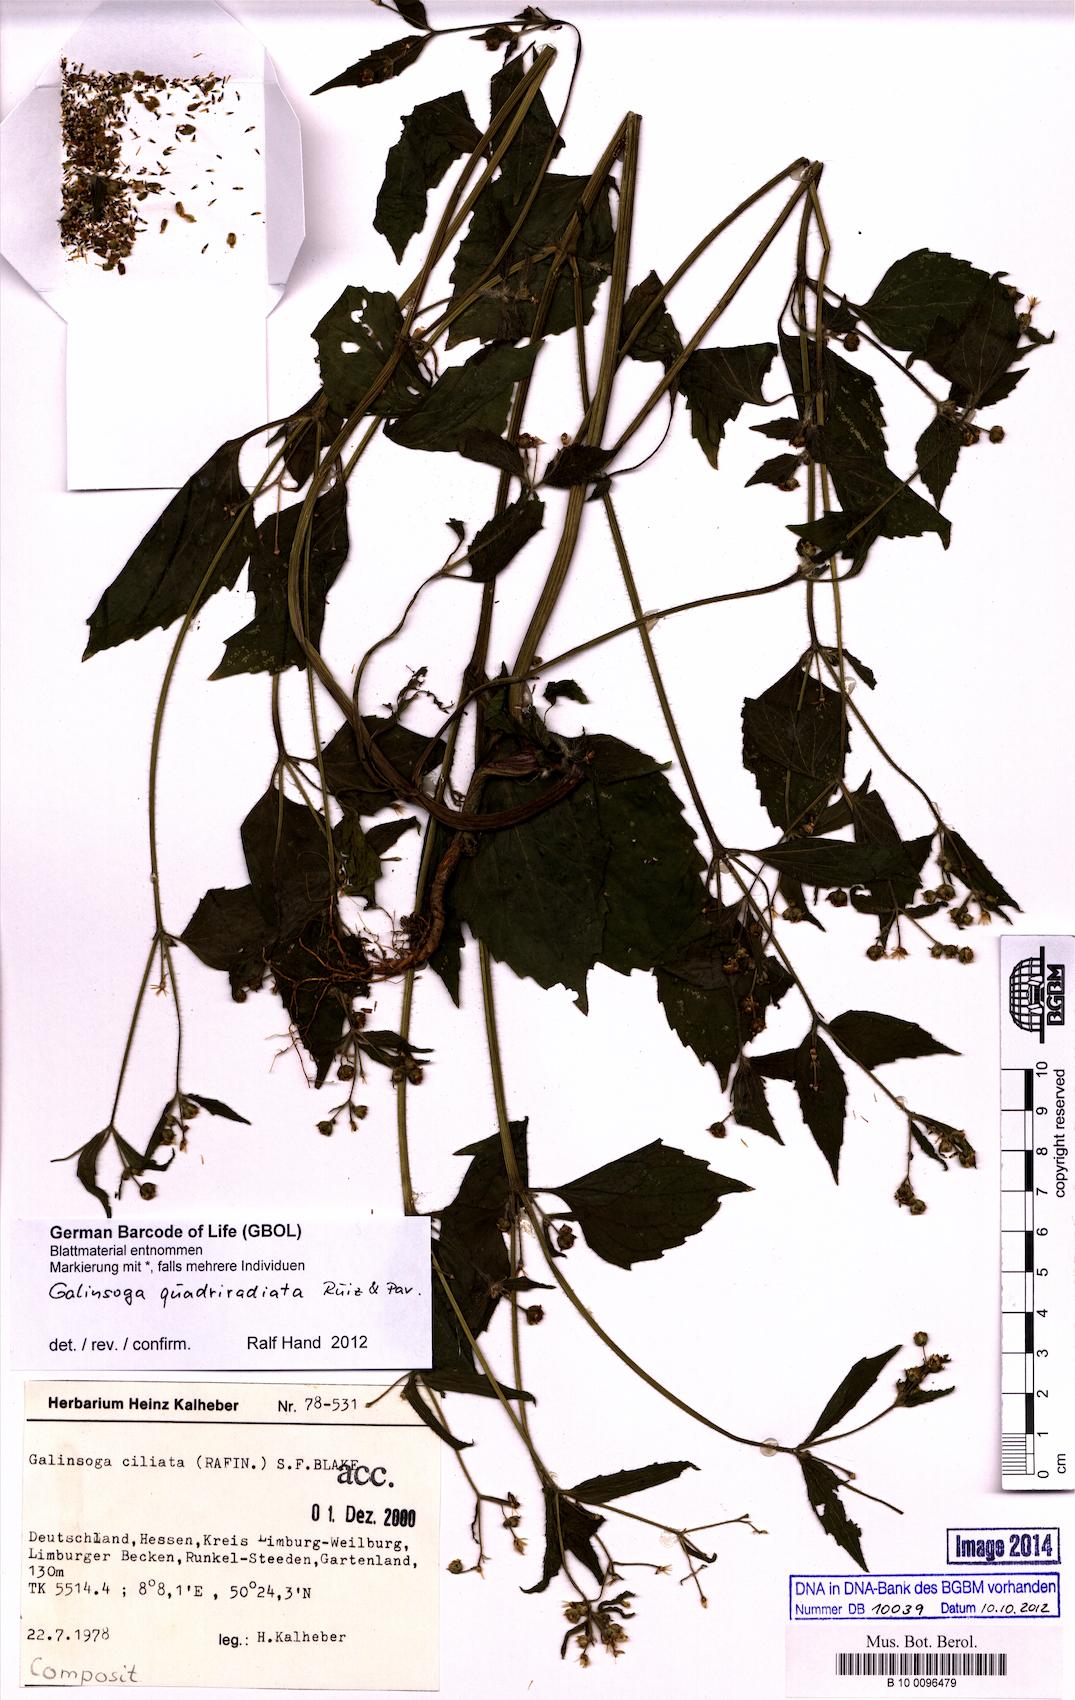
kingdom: Plantae
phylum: Tracheophyta
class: Magnoliopsida
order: Asterales
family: Asteraceae
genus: Galinsoga
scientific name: Galinsoga quadriradiata
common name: Shaggy soldier
